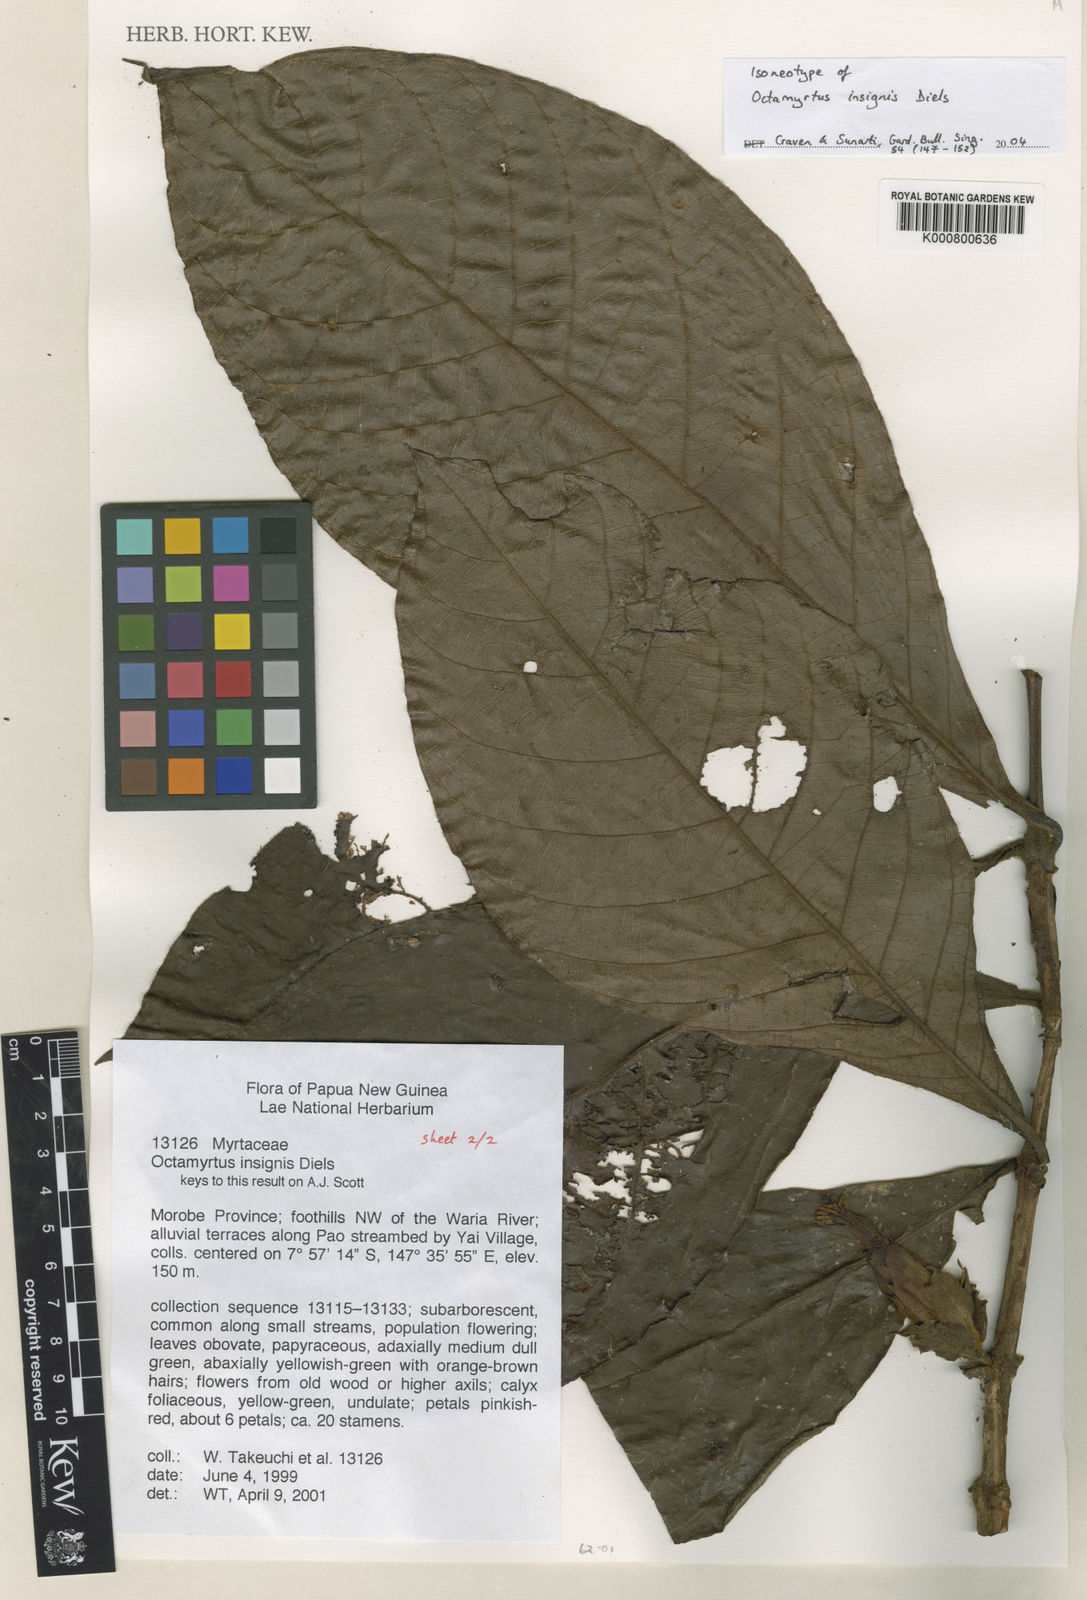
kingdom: Plantae
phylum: Tracheophyta
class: Magnoliopsida
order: Myrtales
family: Myrtaceae
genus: Octamyrtus
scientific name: Octamyrtus insignis
